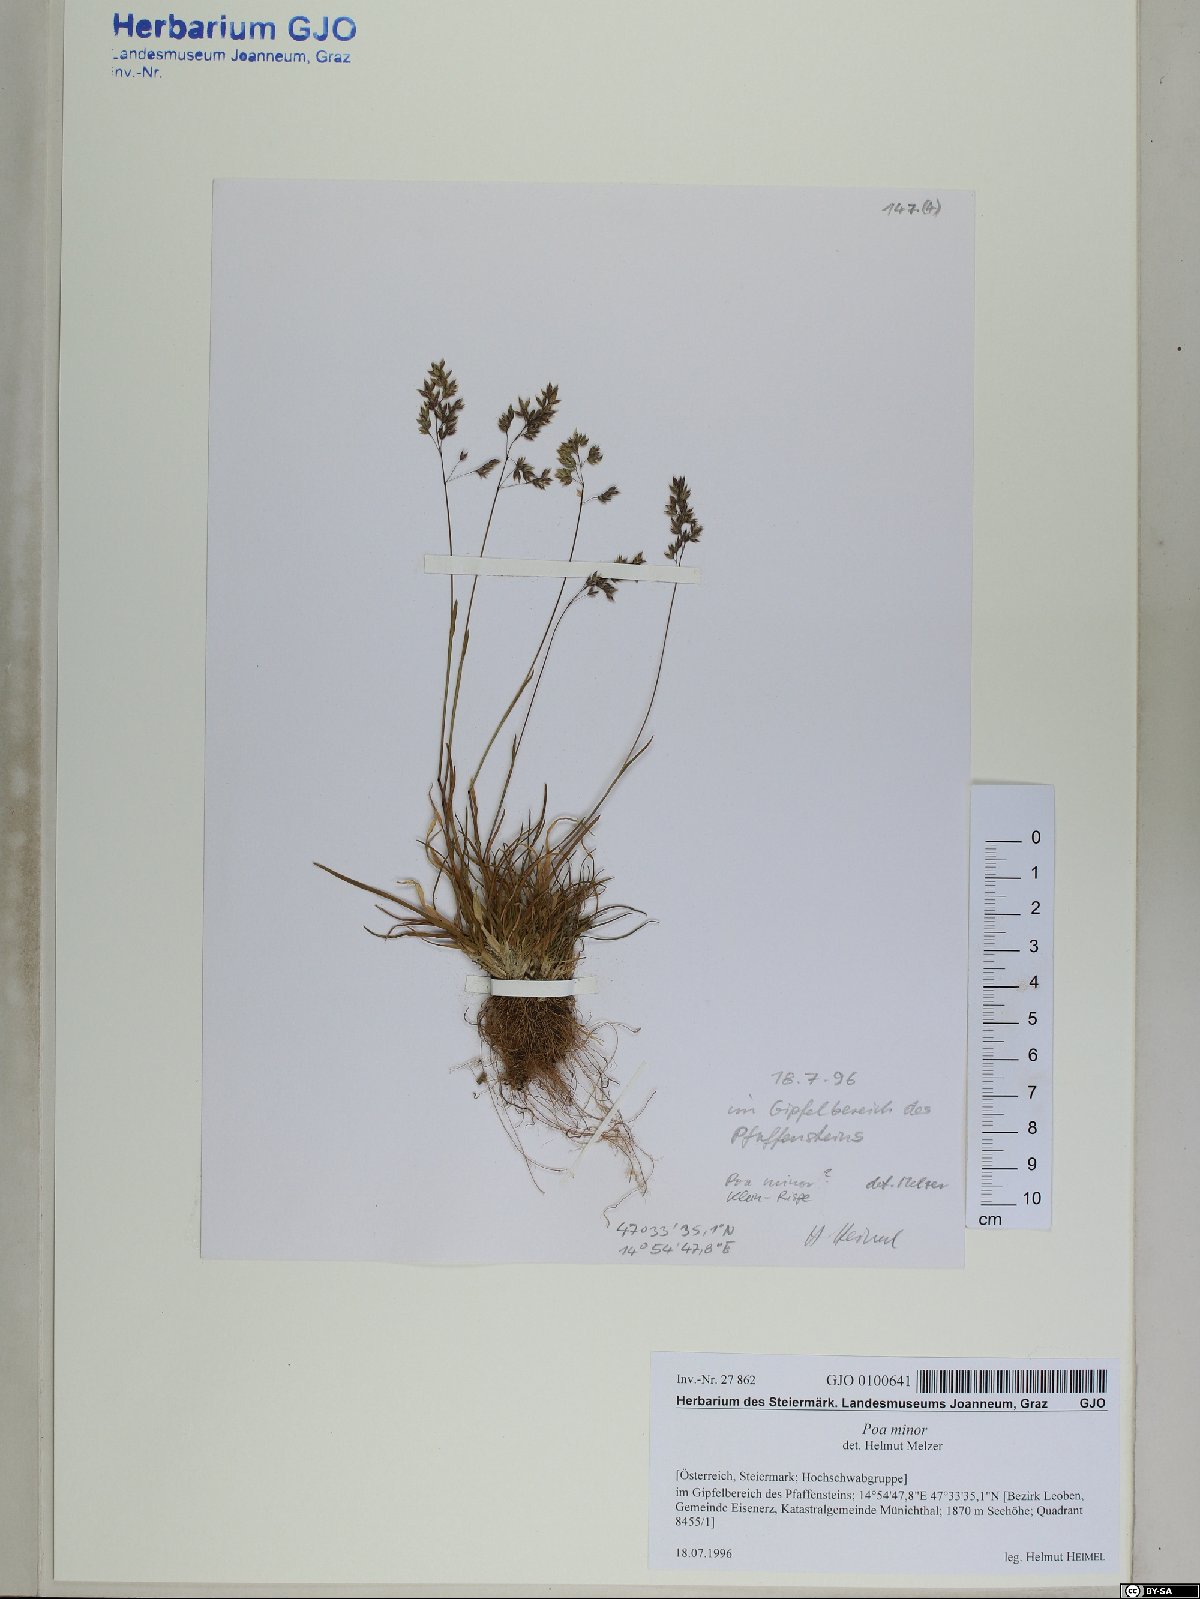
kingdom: Plantae
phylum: Tracheophyta
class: Liliopsida
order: Poales
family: Poaceae
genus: Poa
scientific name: Poa minor
